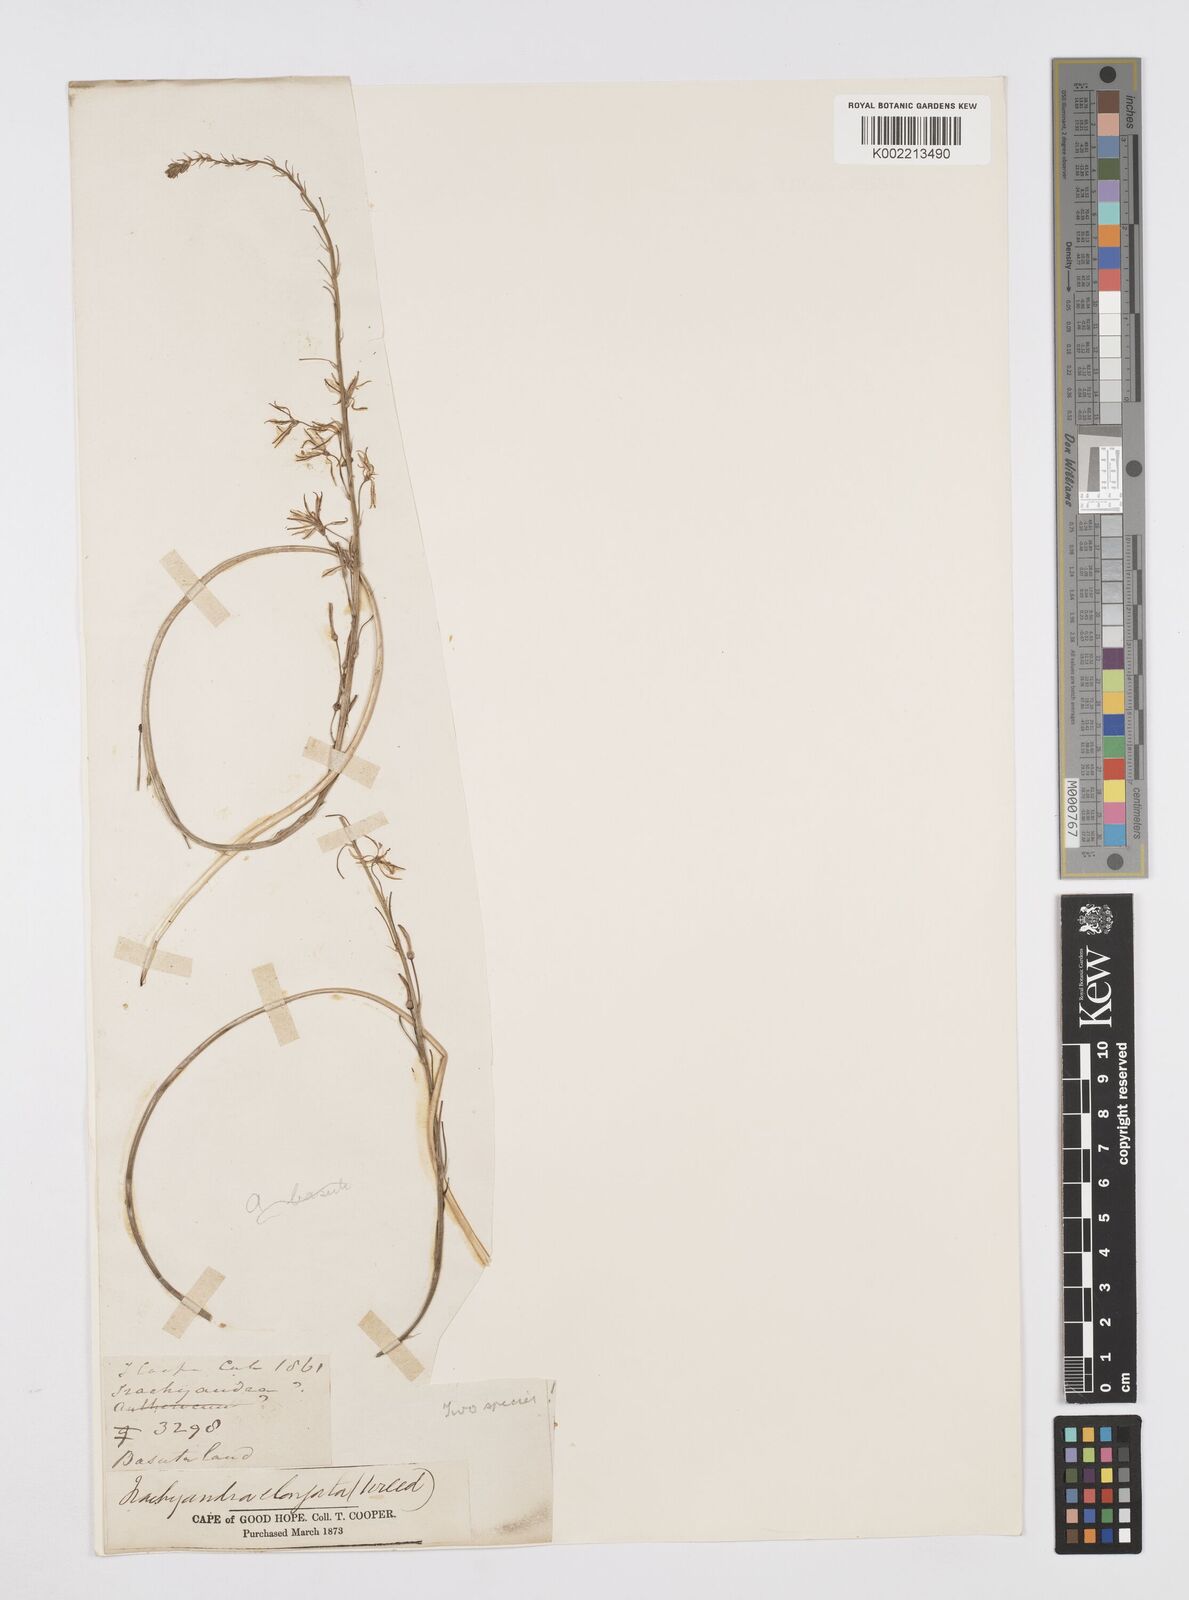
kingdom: Plantae
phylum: Tracheophyta
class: Liliopsida
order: Asparagales
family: Asphodelaceae
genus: Trachyandra
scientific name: Trachyandra saltii
